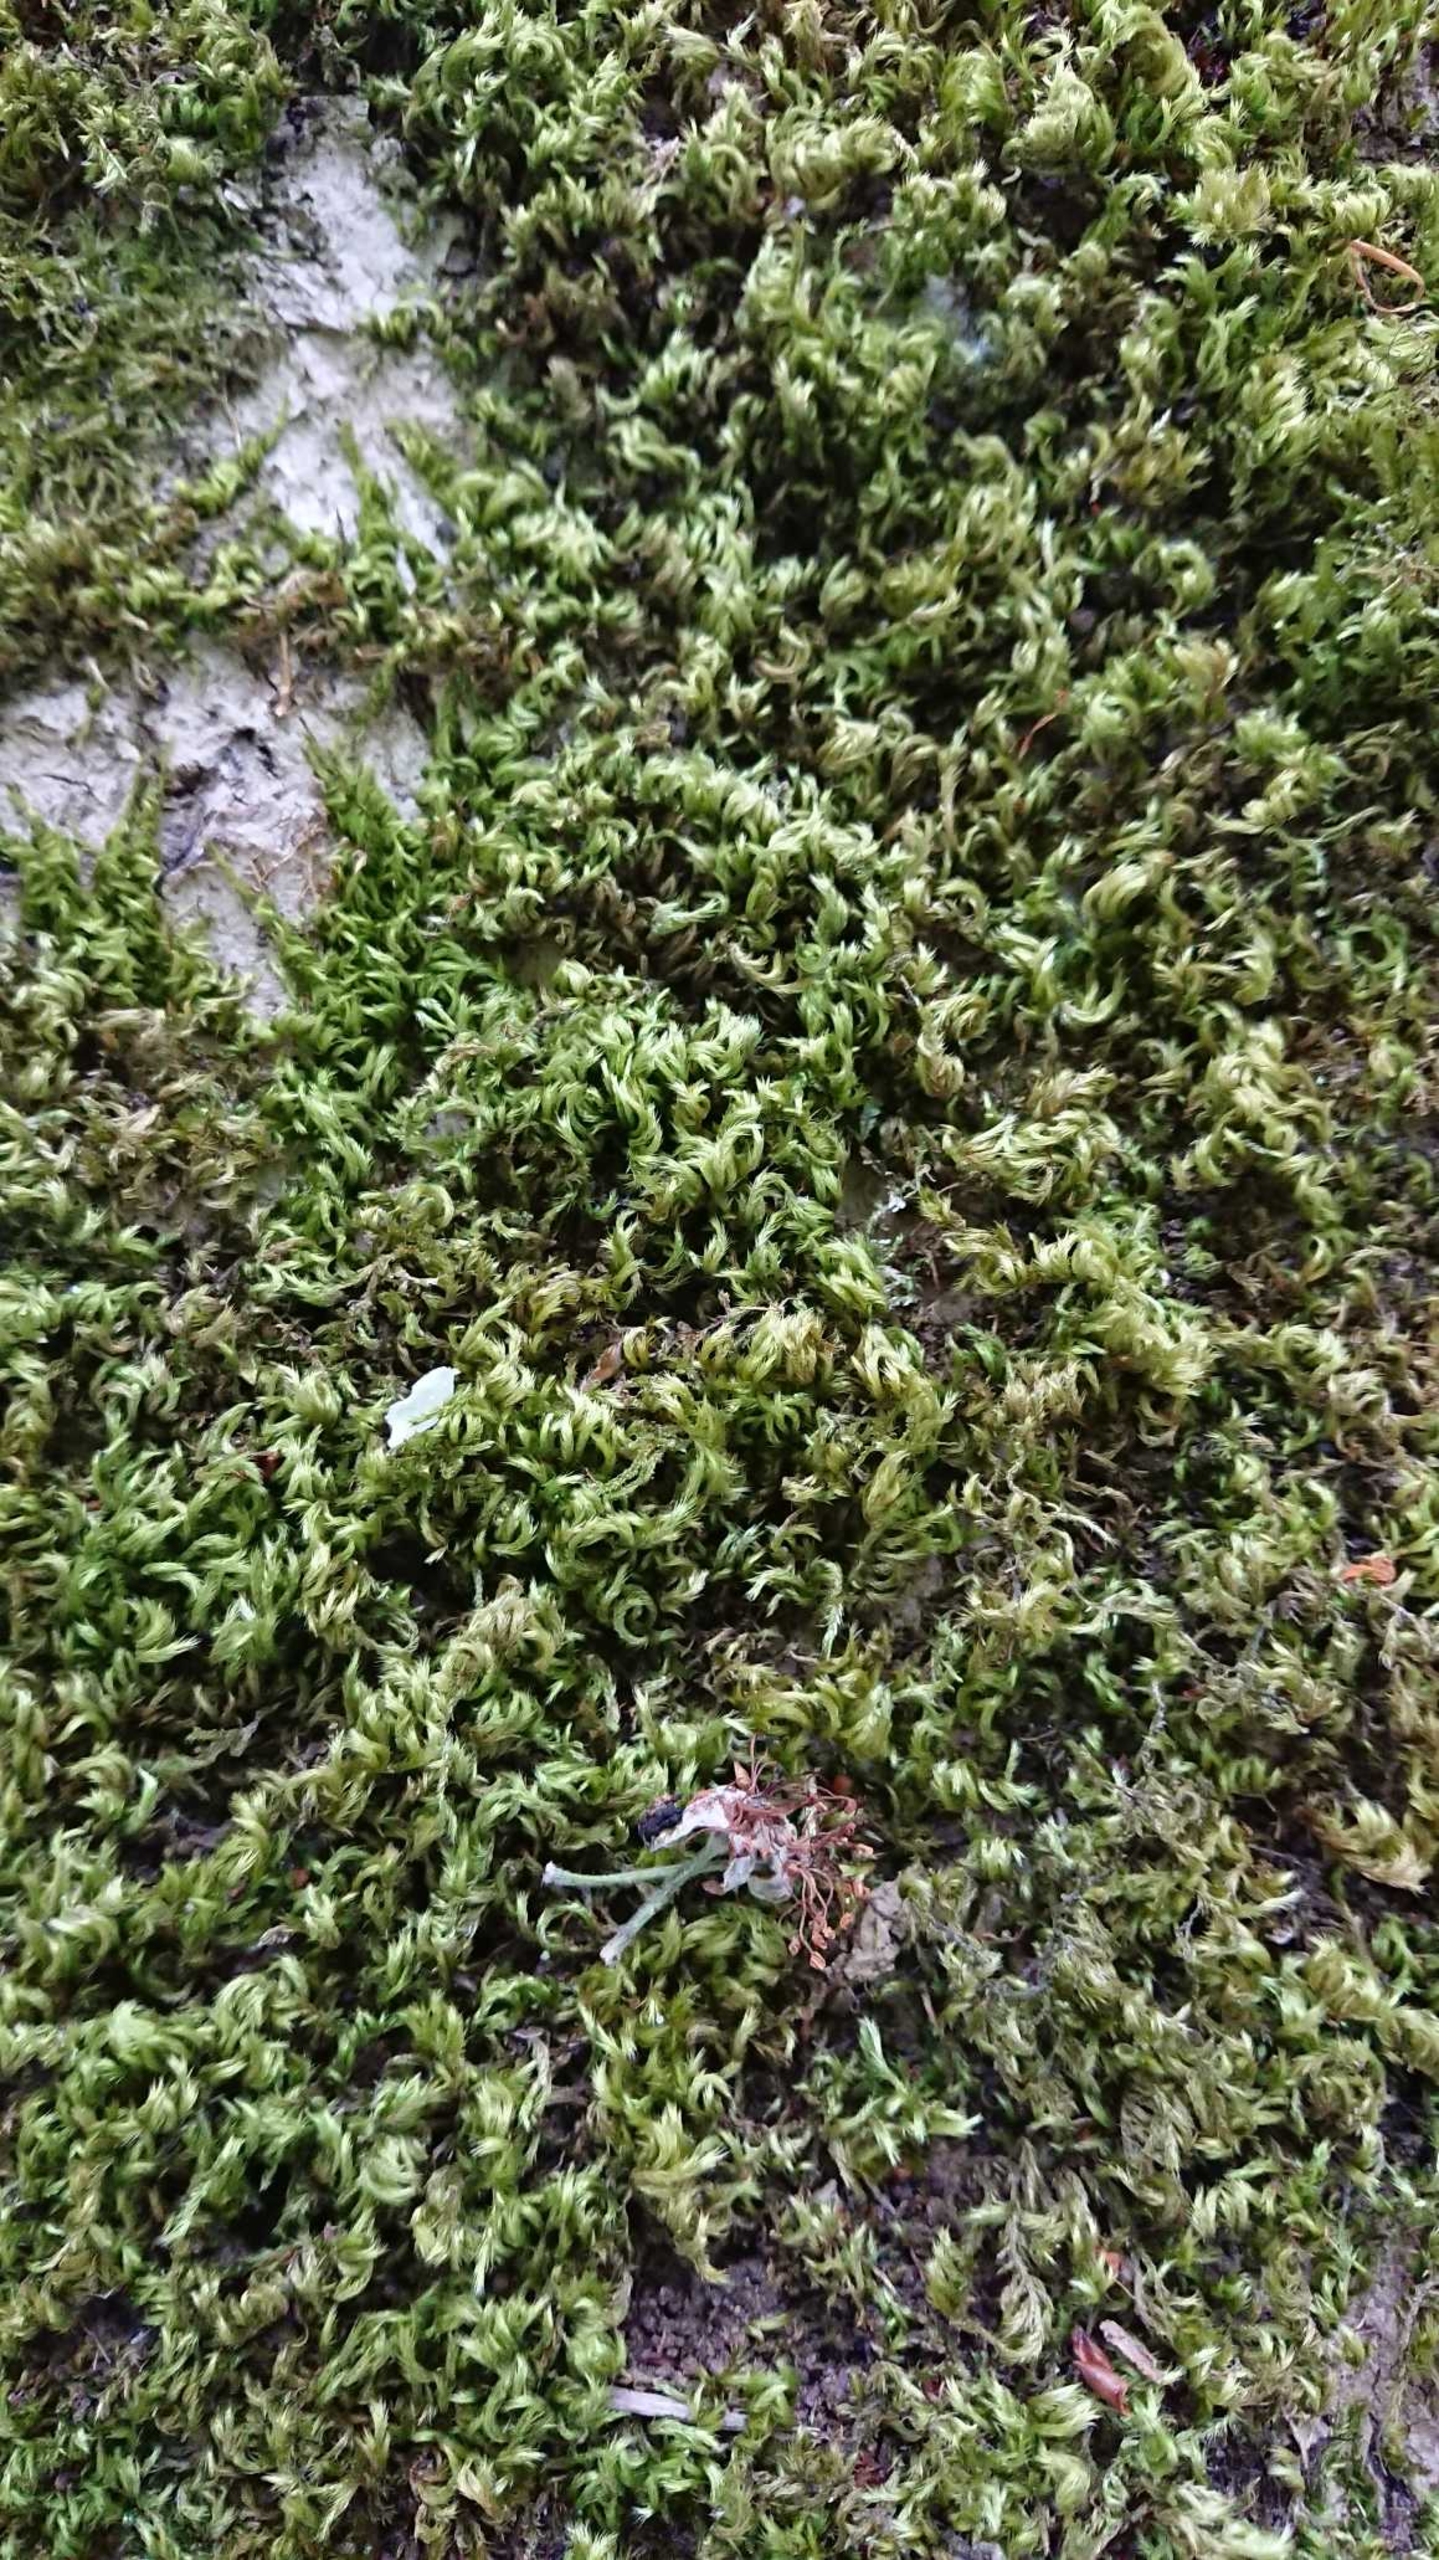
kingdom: Plantae
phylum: Bryophyta
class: Bryopsida
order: Hypnales
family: Brachytheciaceae
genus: Homalothecium
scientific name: Homalothecium sericeum
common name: Krybende silkemos
